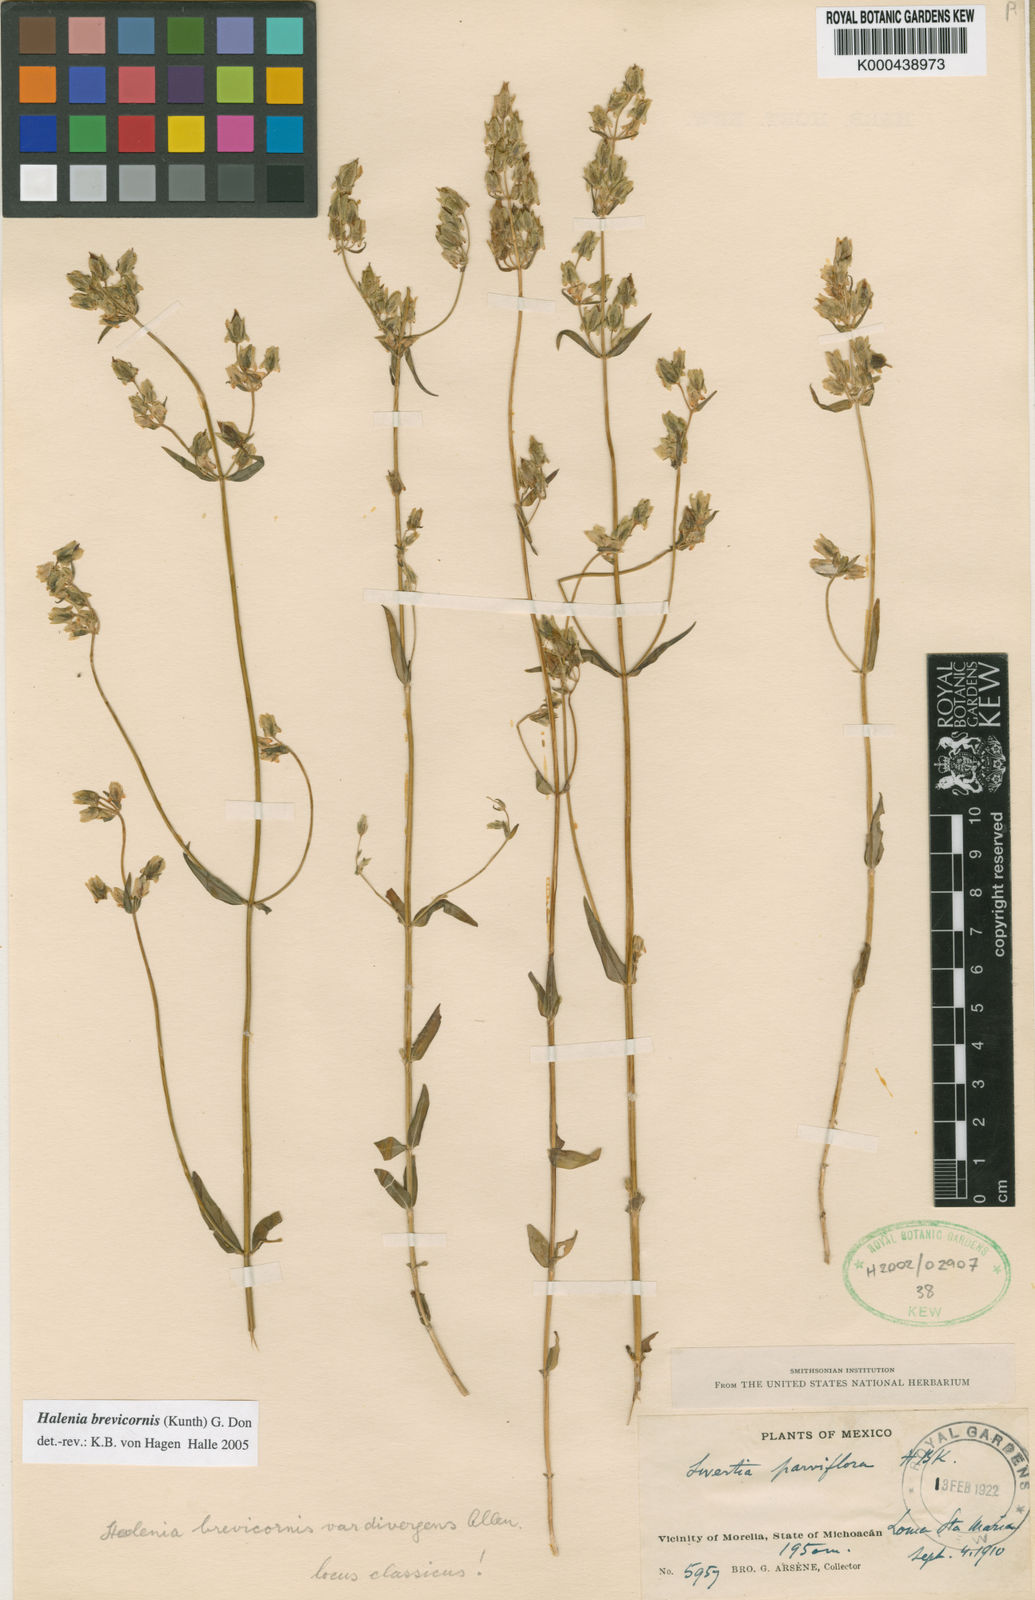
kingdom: Plantae
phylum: Tracheophyta
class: Magnoliopsida
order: Gentianales
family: Gentianaceae
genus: Halenia
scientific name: Halenia brevicornis
